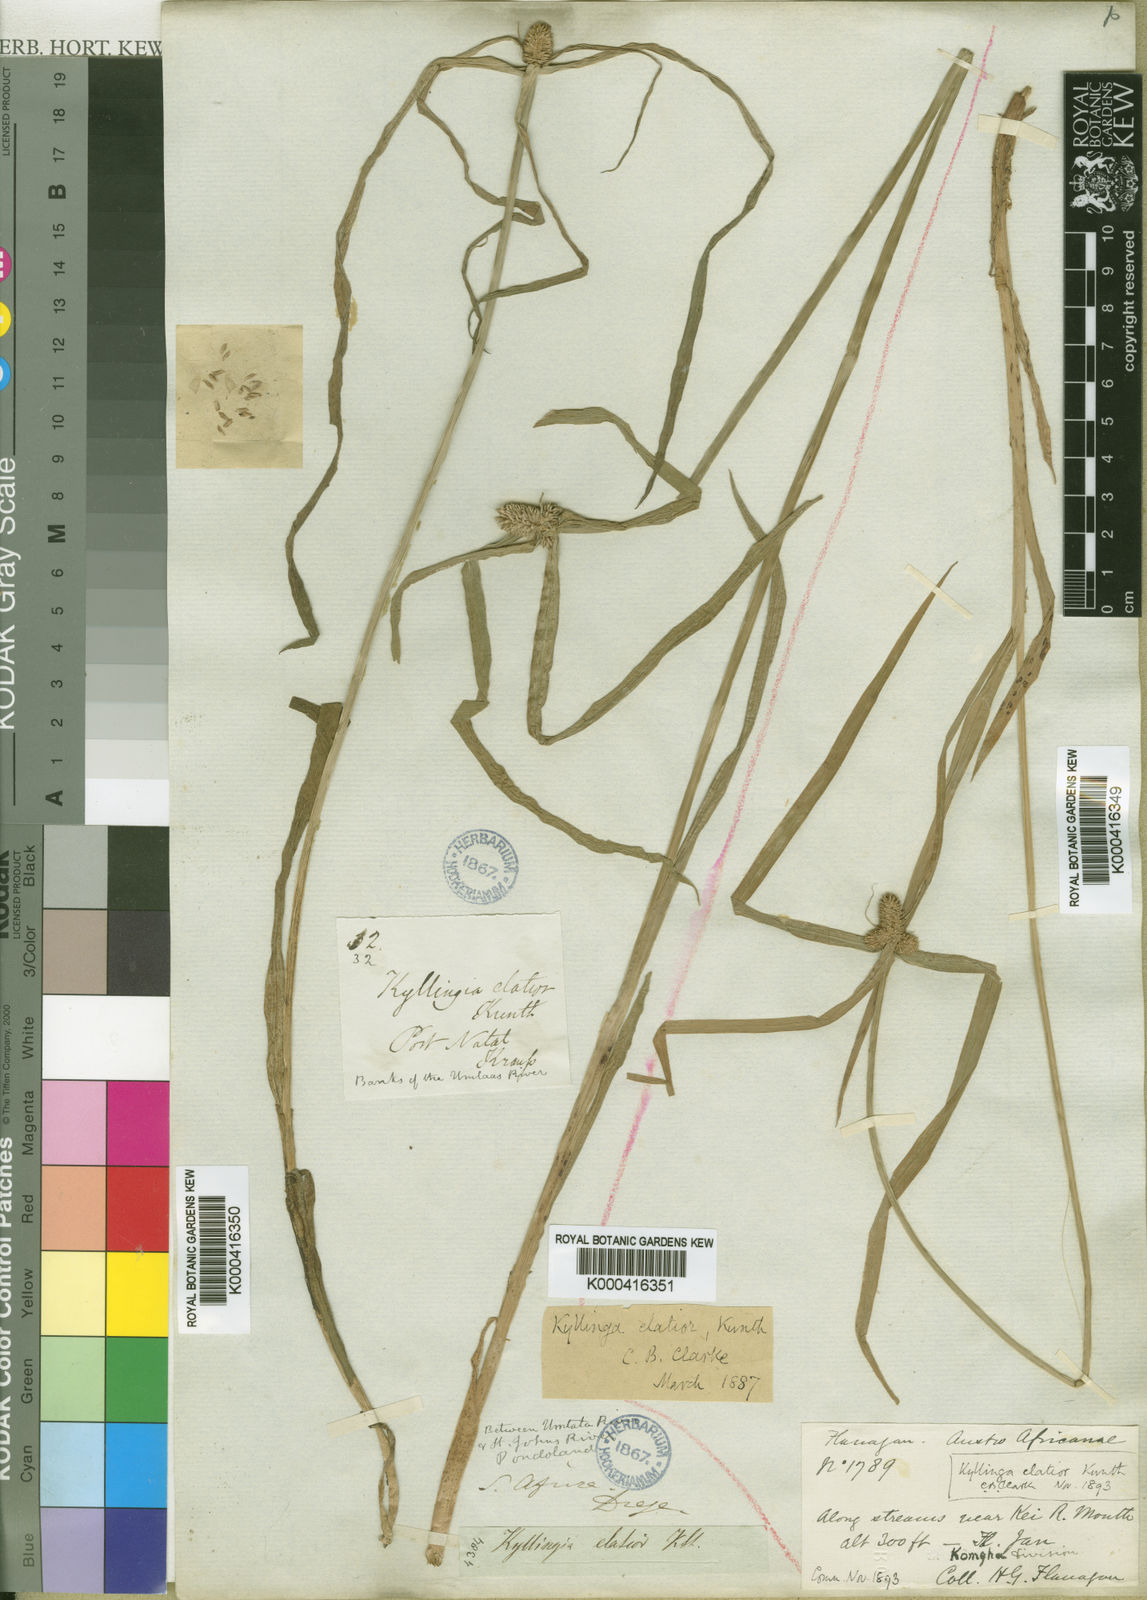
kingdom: Plantae
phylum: Tracheophyta
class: Liliopsida
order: Poales
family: Cyperaceae
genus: Cyperus
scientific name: Cyperus
